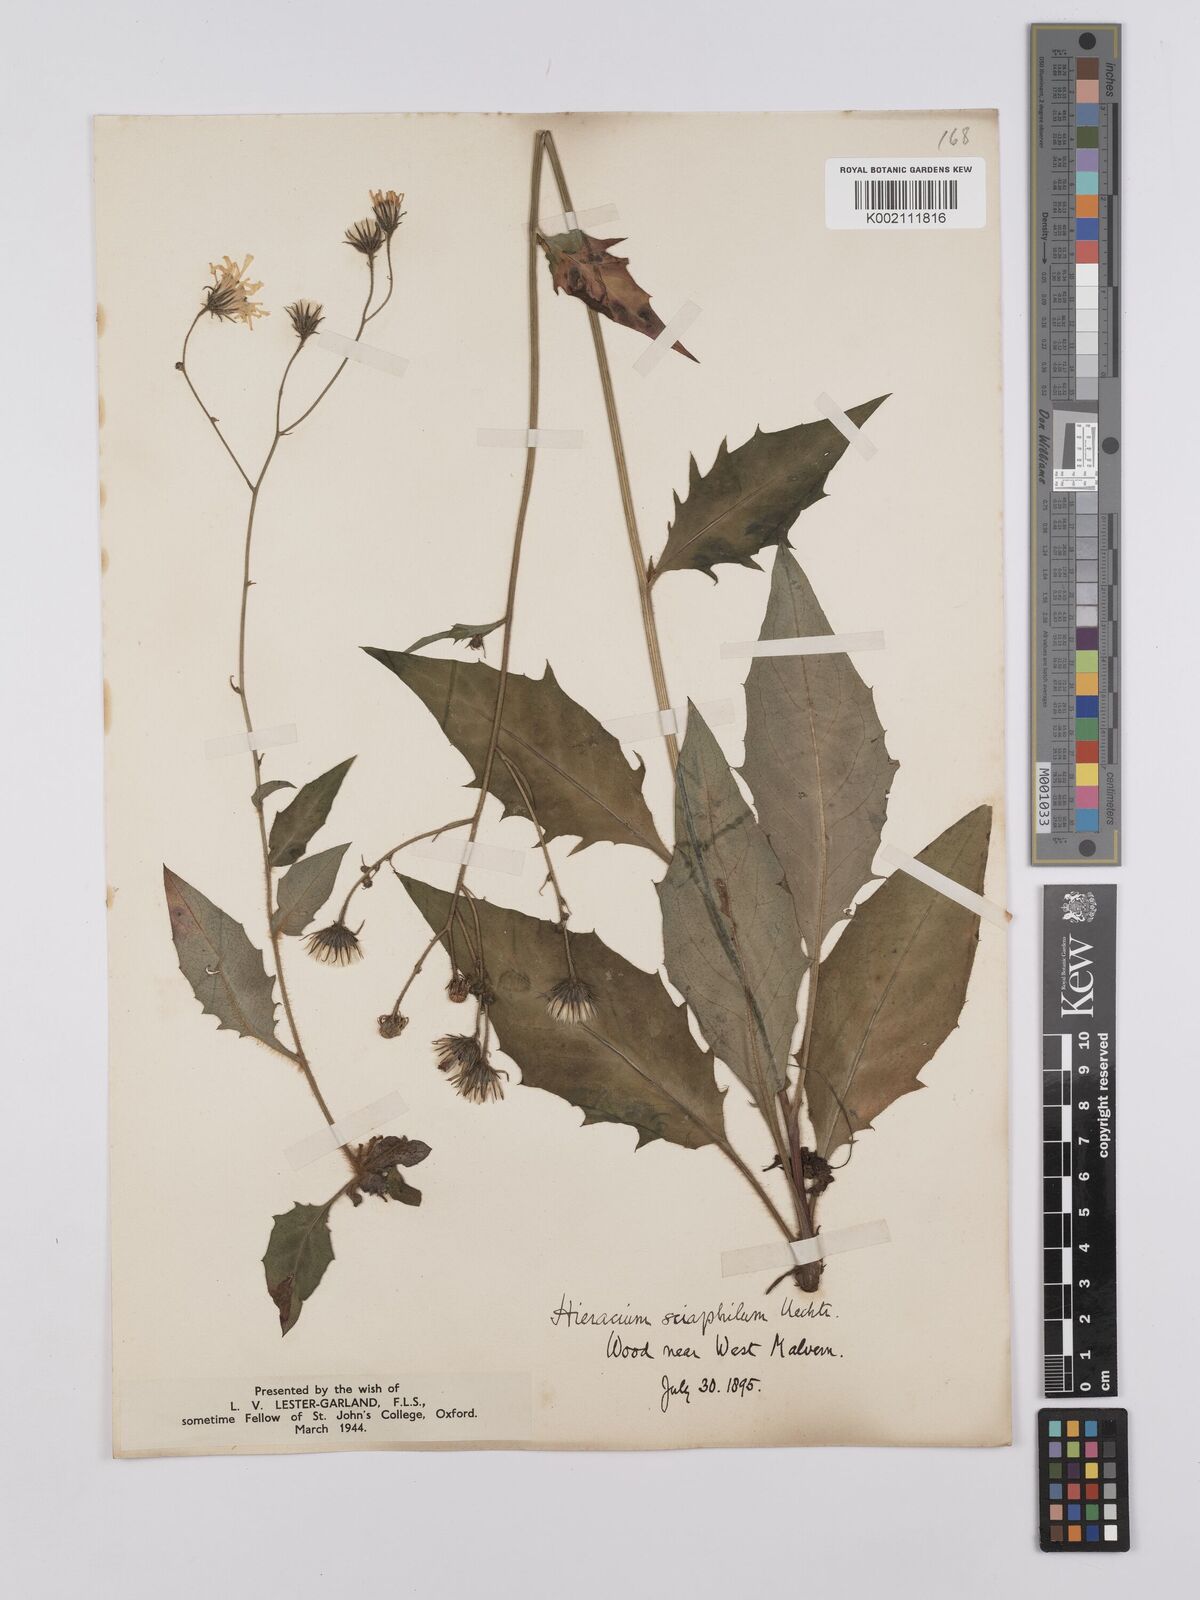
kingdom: Plantae
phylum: Tracheophyta
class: Magnoliopsida
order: Asterales
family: Asteraceae
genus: Hieracium
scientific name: Hieracium lachenalii
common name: Common hawkweed
